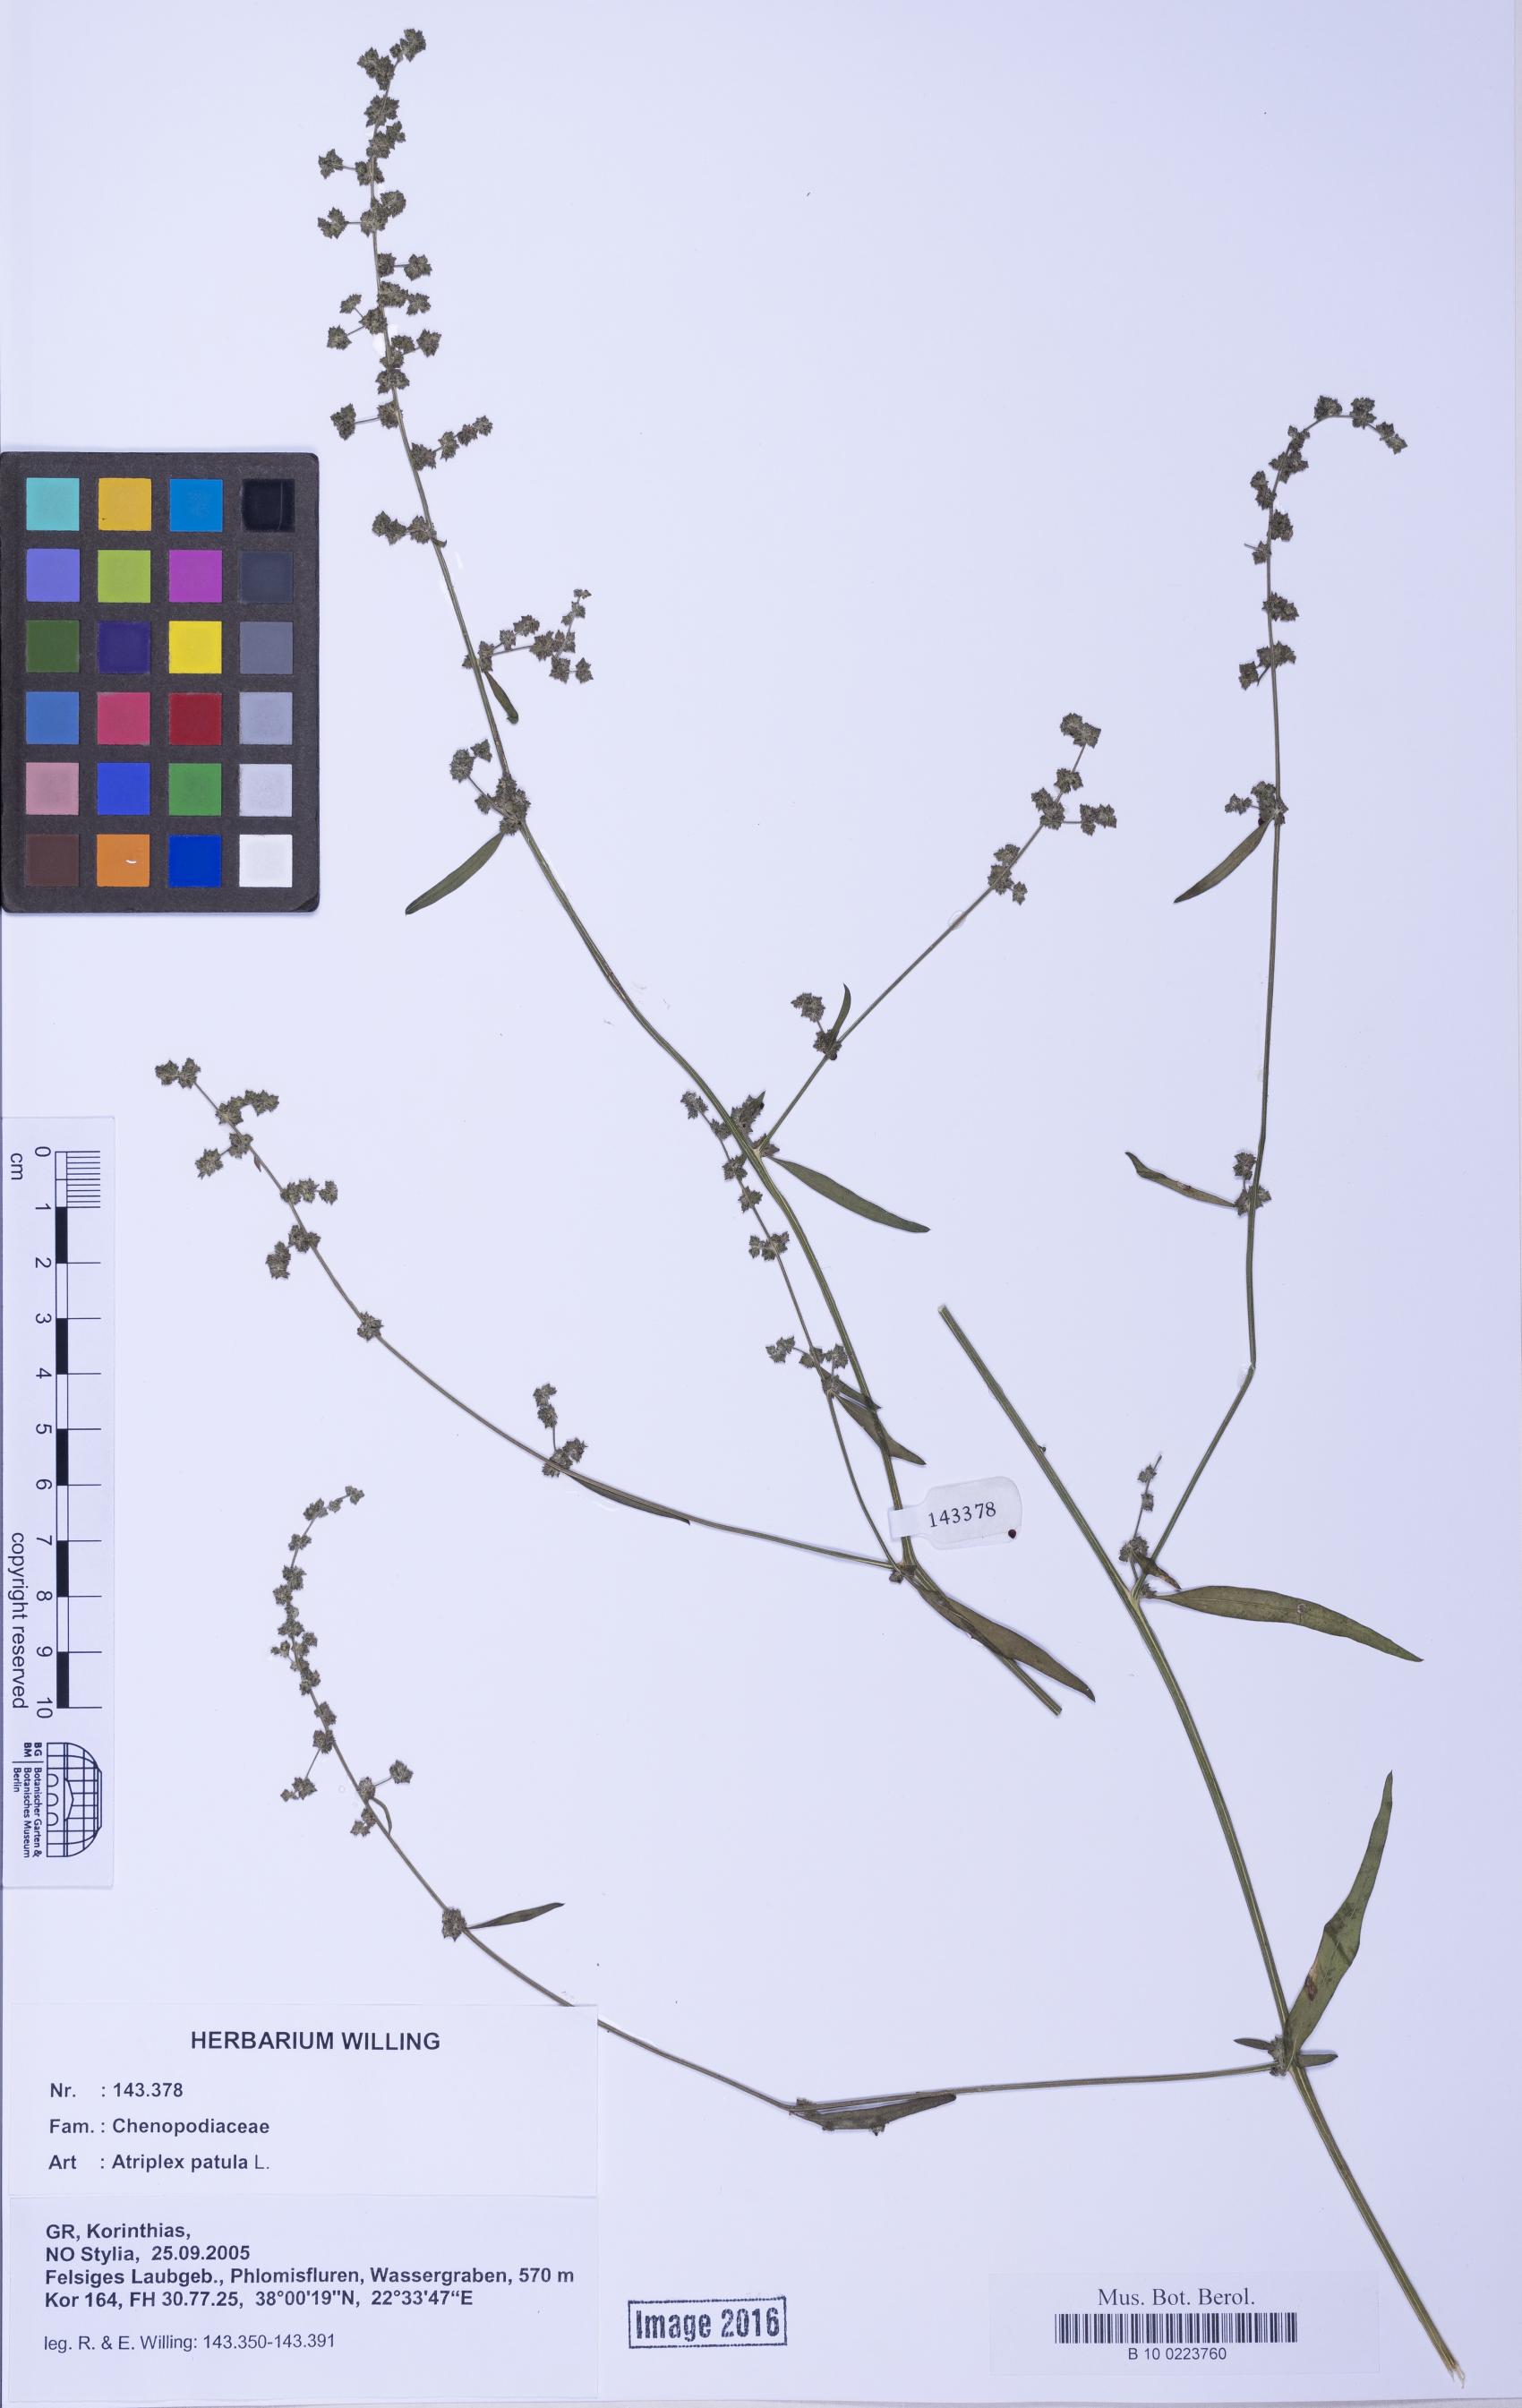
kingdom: Plantae
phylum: Tracheophyta
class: Magnoliopsida
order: Caryophyllales
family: Amaranthaceae
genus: Atriplex
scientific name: Atriplex patula
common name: Common orache
